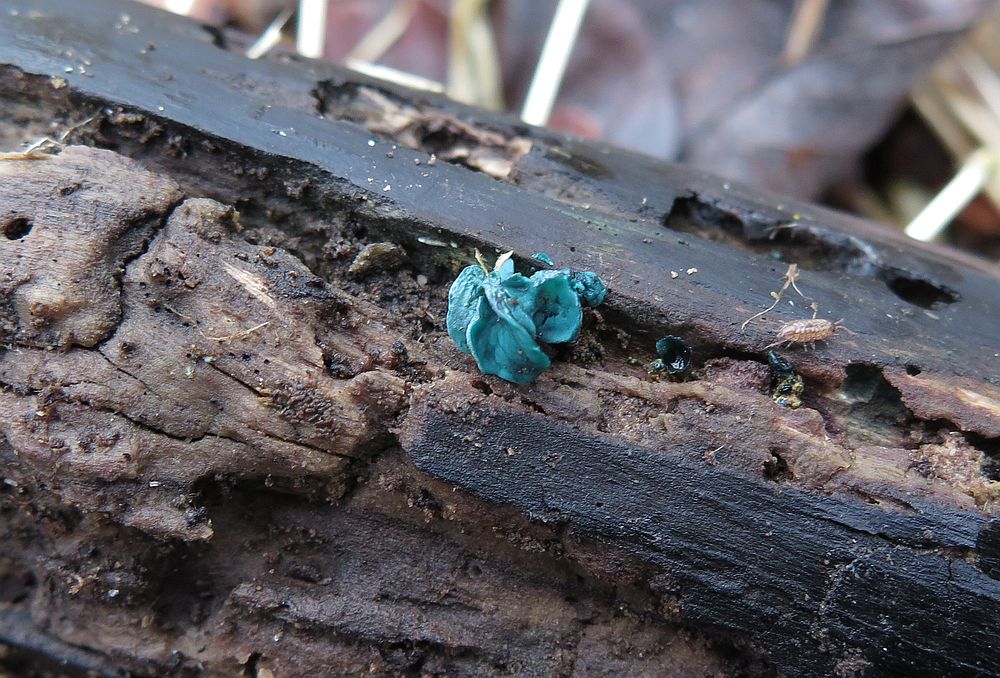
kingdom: Fungi
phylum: Ascomycota
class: Leotiomycetes
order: Helotiales
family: Chlorociboriaceae
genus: Chlorociboria
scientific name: Chlorociboria aeruginascens
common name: almindelig grønskive
